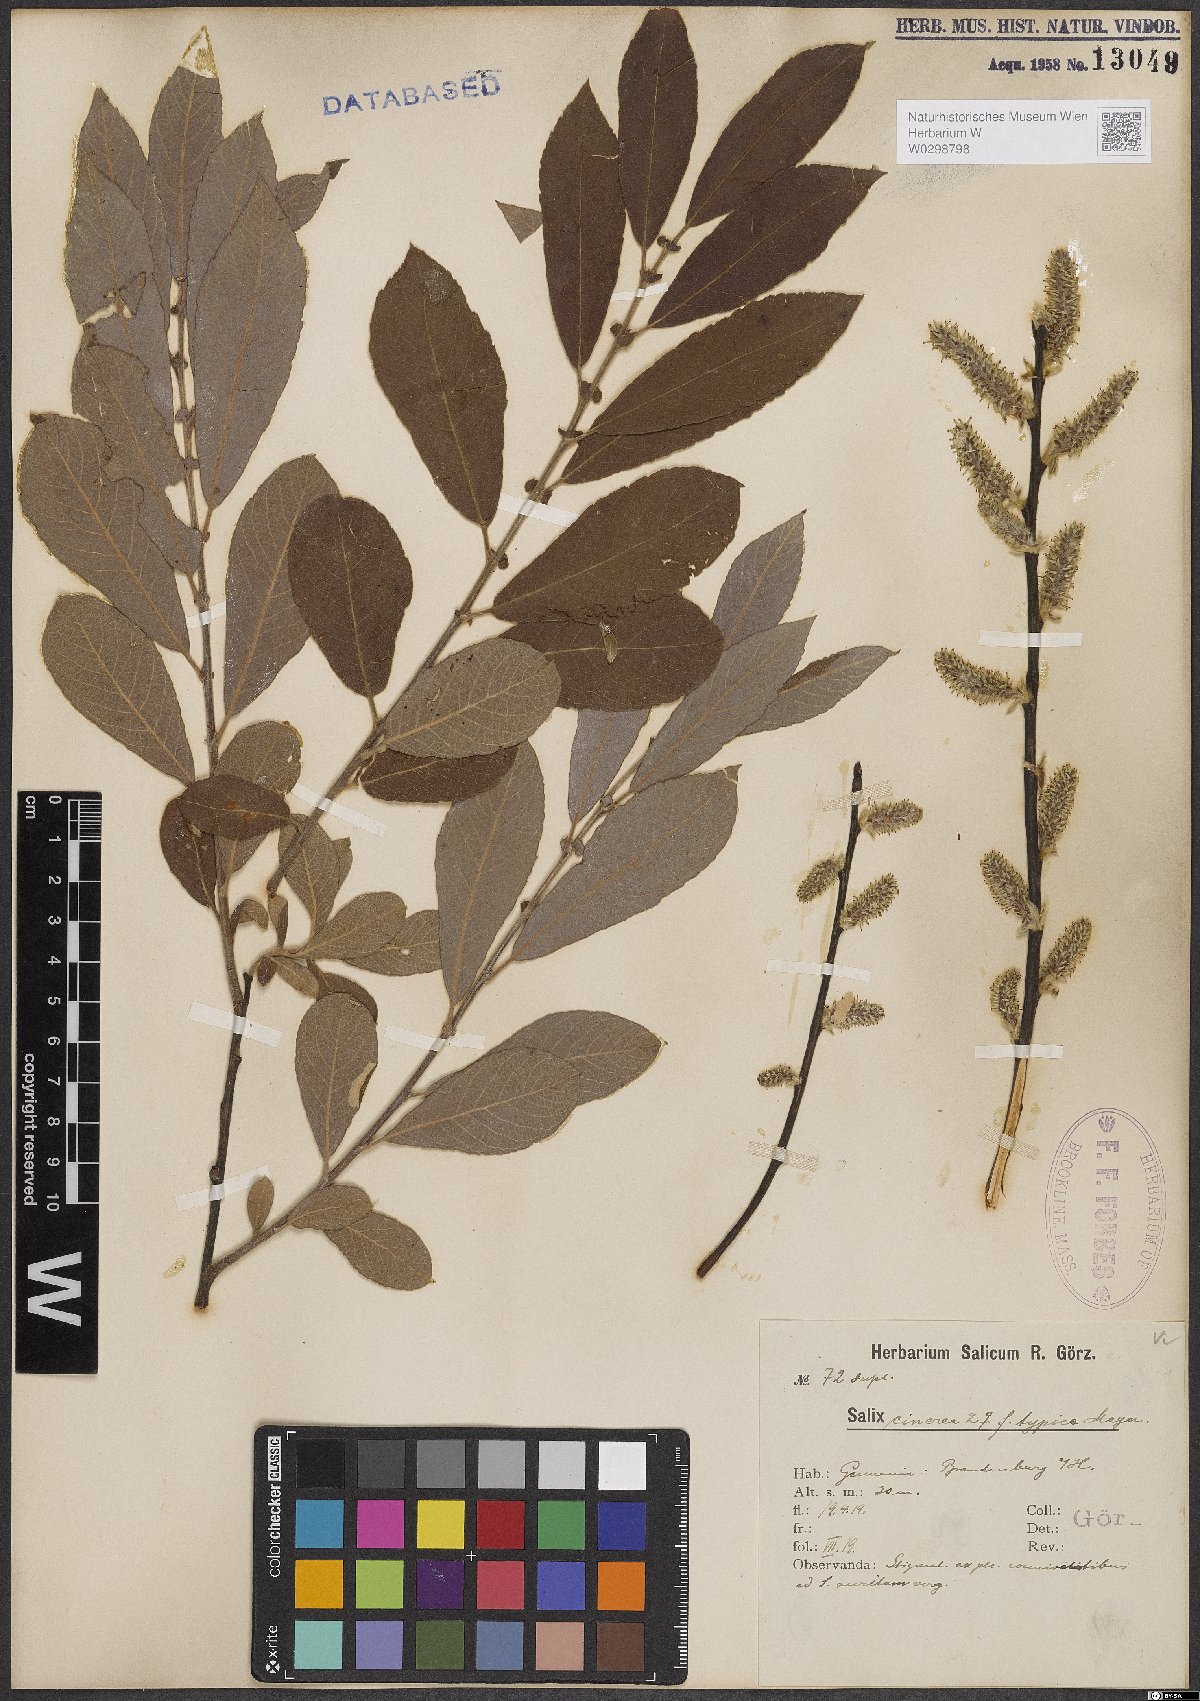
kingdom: Plantae
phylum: Tracheophyta
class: Magnoliopsida
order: Malpighiales
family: Salicaceae
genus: Salix
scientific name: Salix cinerea
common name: Common sallow
